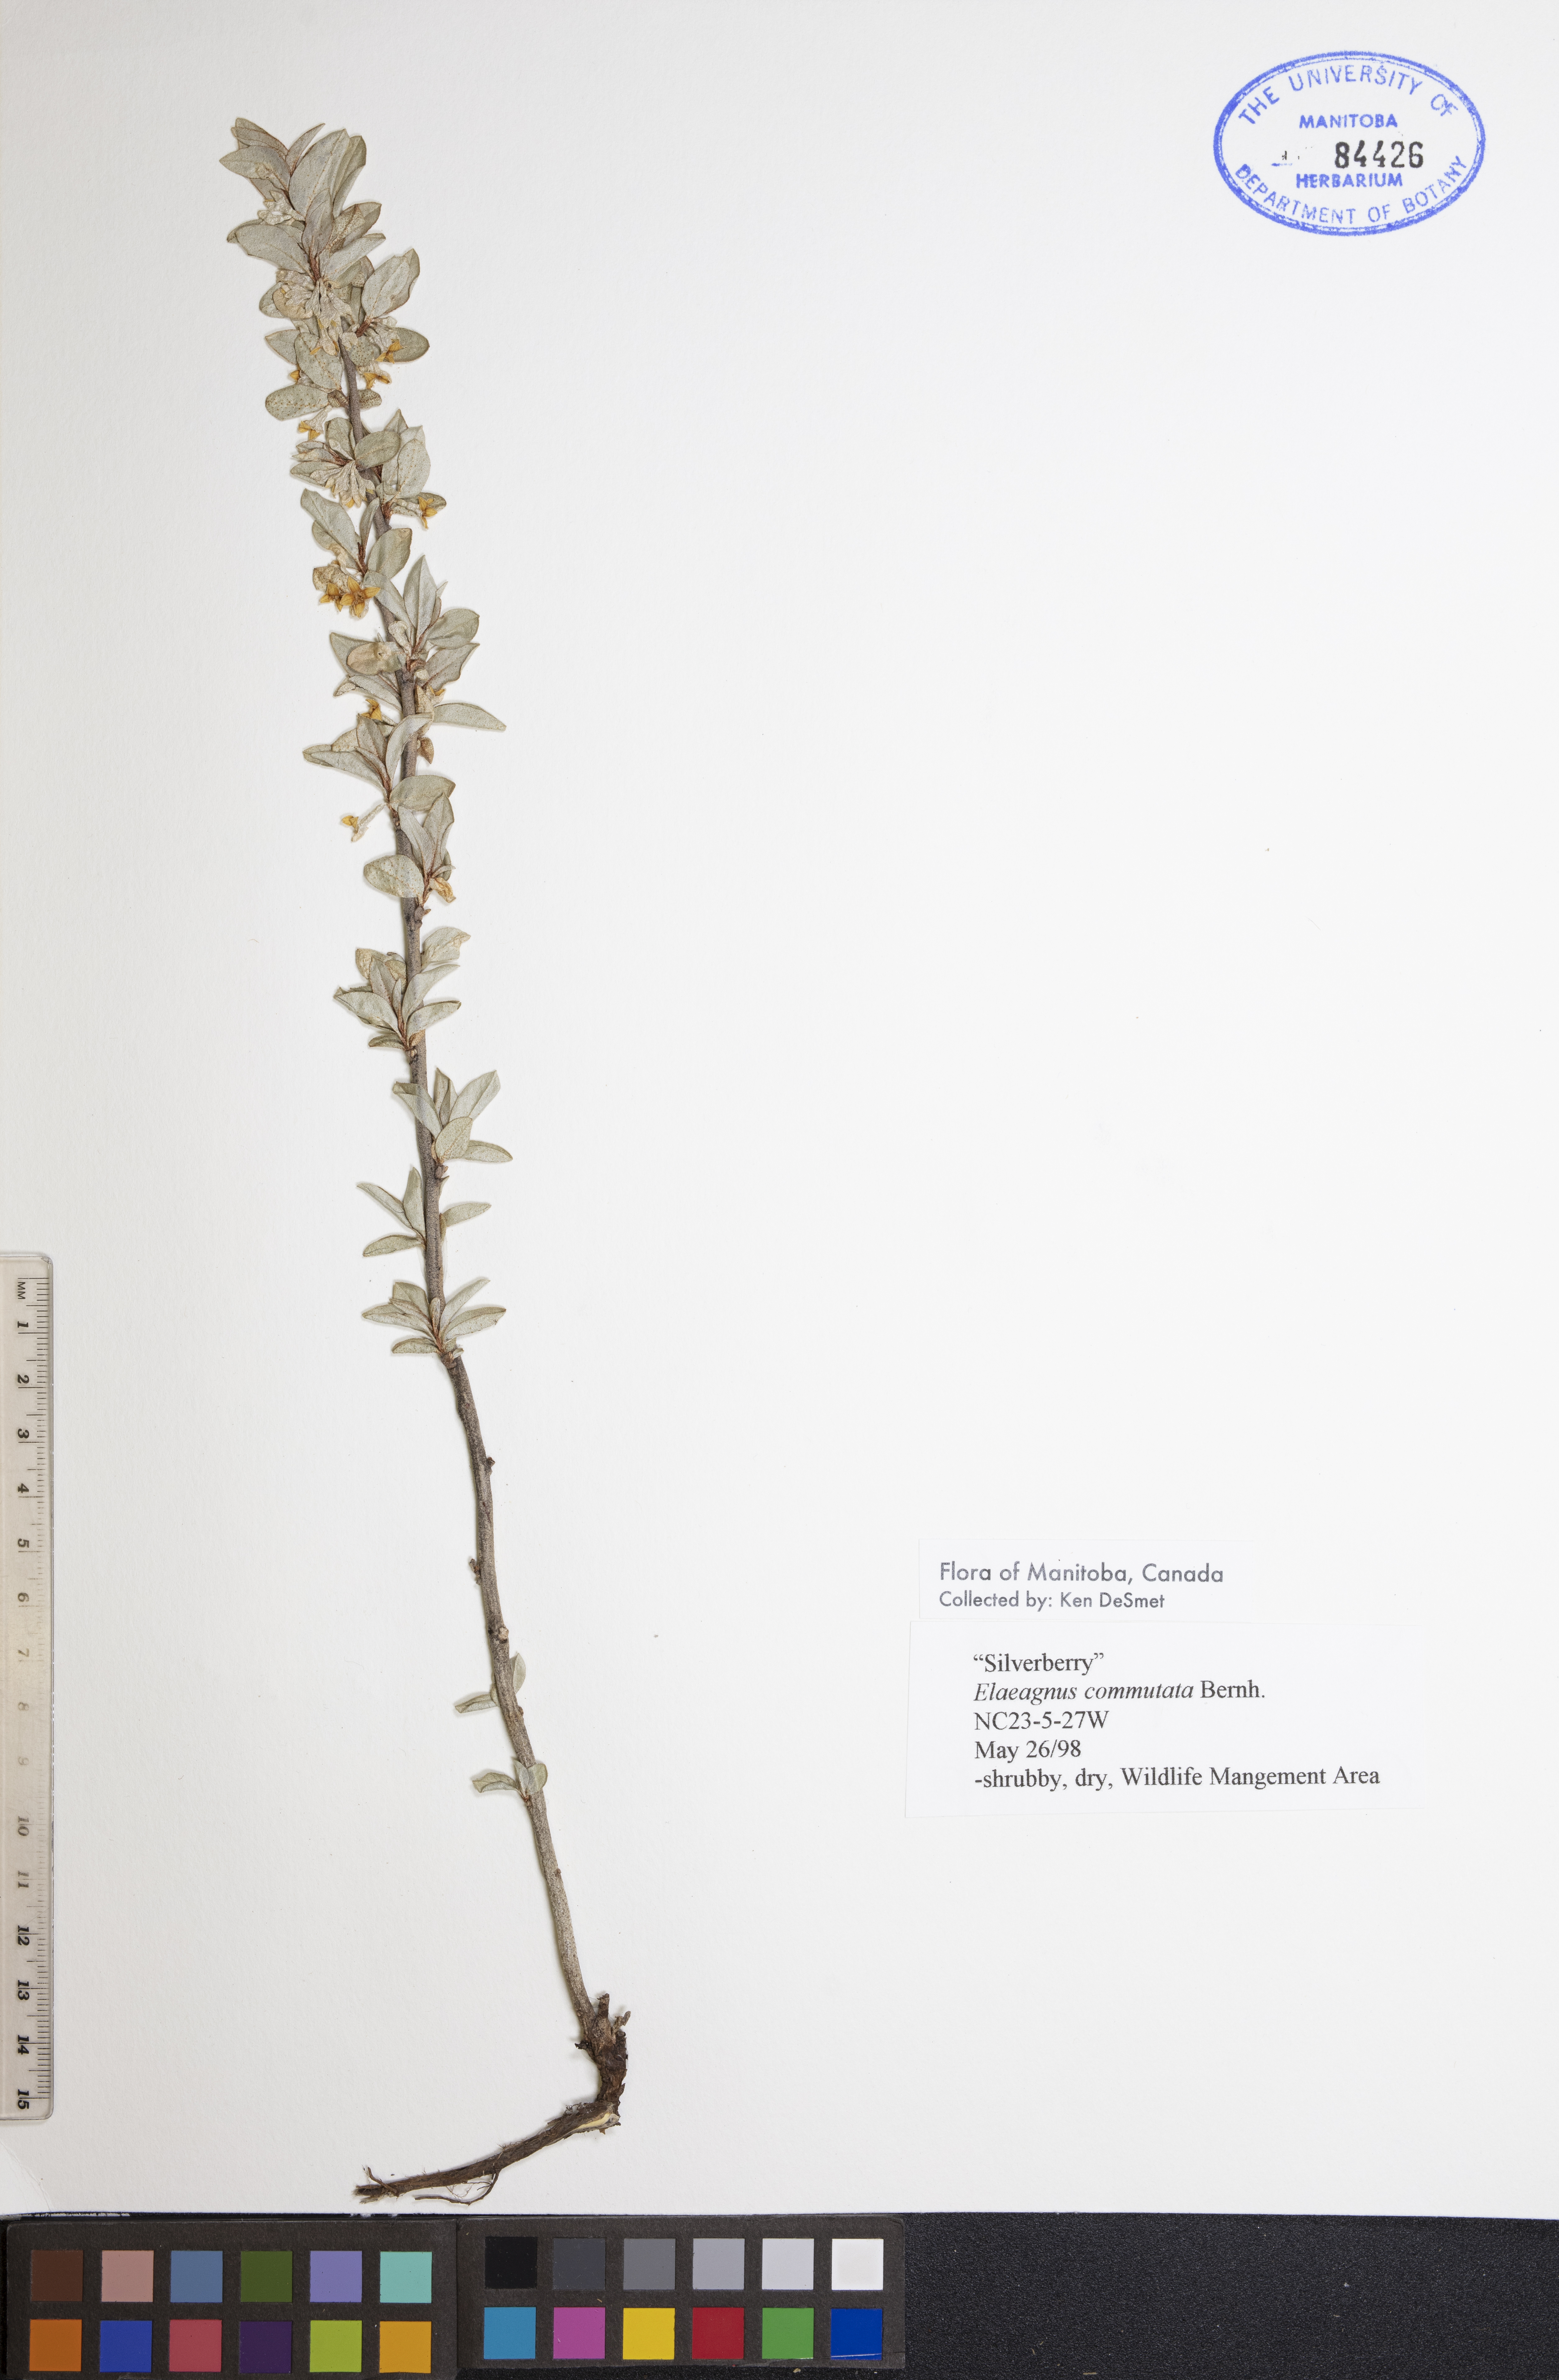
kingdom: Plantae
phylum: Tracheophyta
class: Magnoliopsida
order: Rosales
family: Elaeagnaceae
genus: Elaeagnus
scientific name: Elaeagnus commutata
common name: Silverberry
